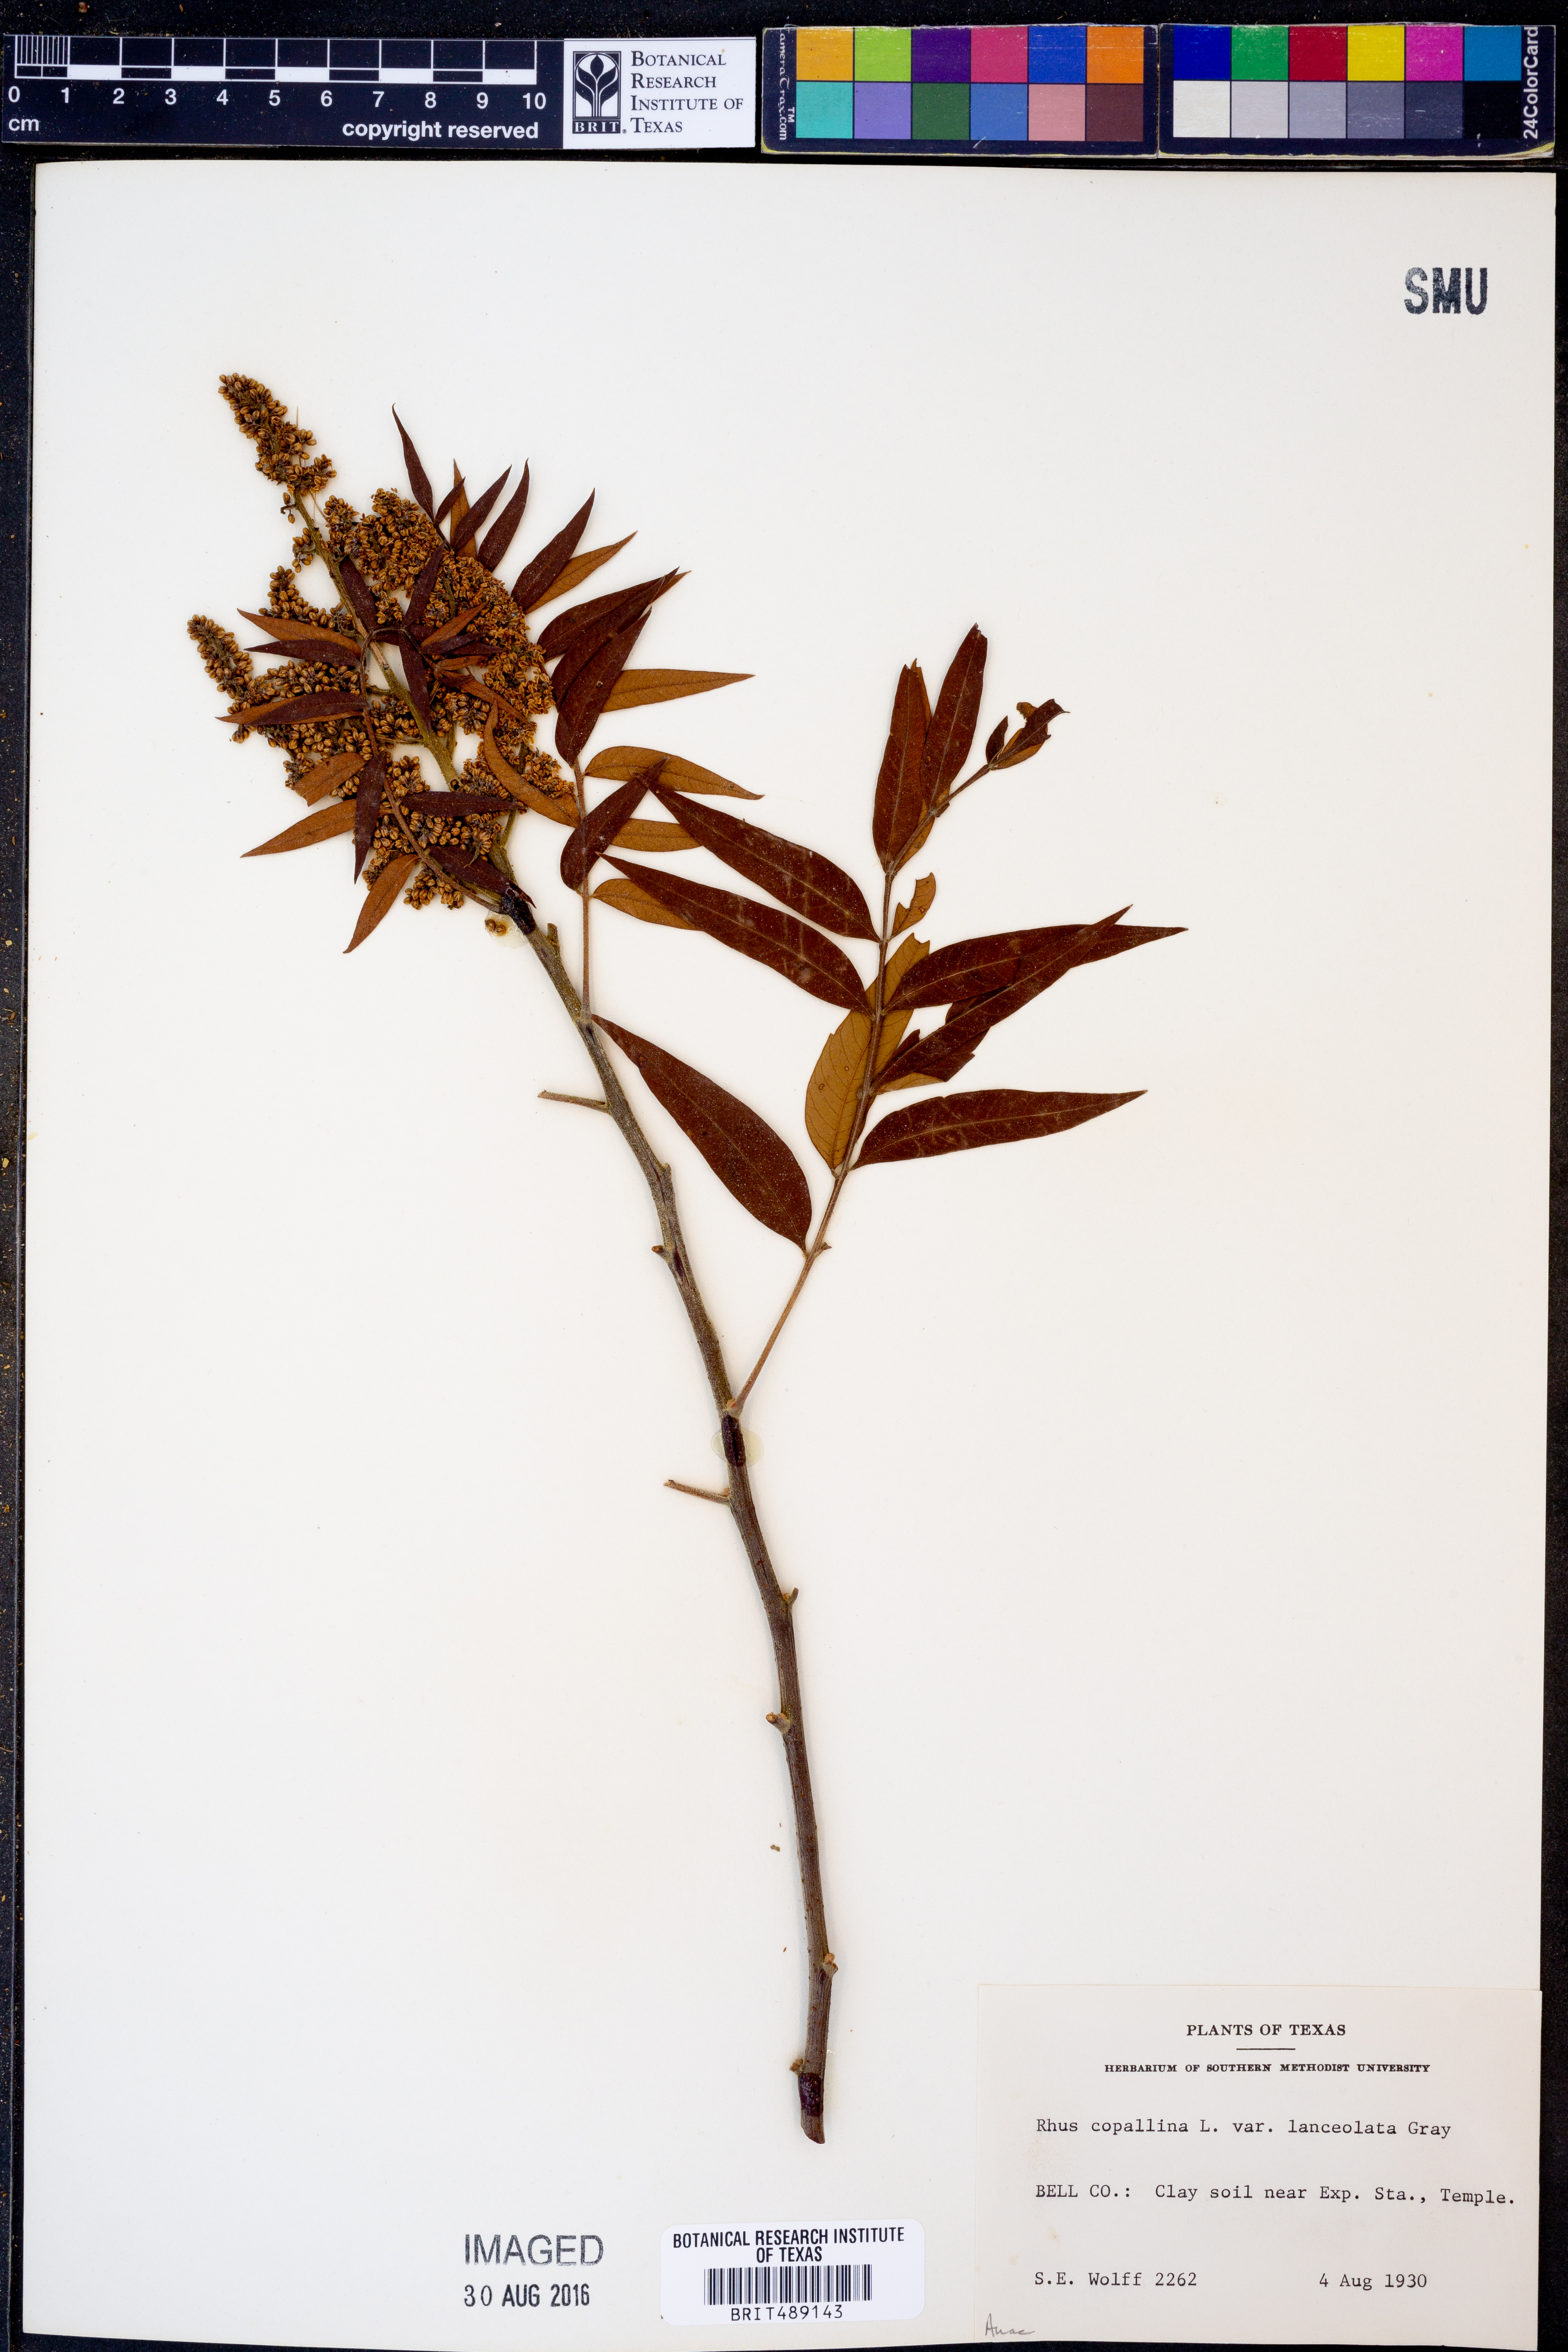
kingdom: Plantae
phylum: Tracheophyta
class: Magnoliopsida
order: Sapindales
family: Anacardiaceae
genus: Rhus
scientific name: Rhus lanceolata
